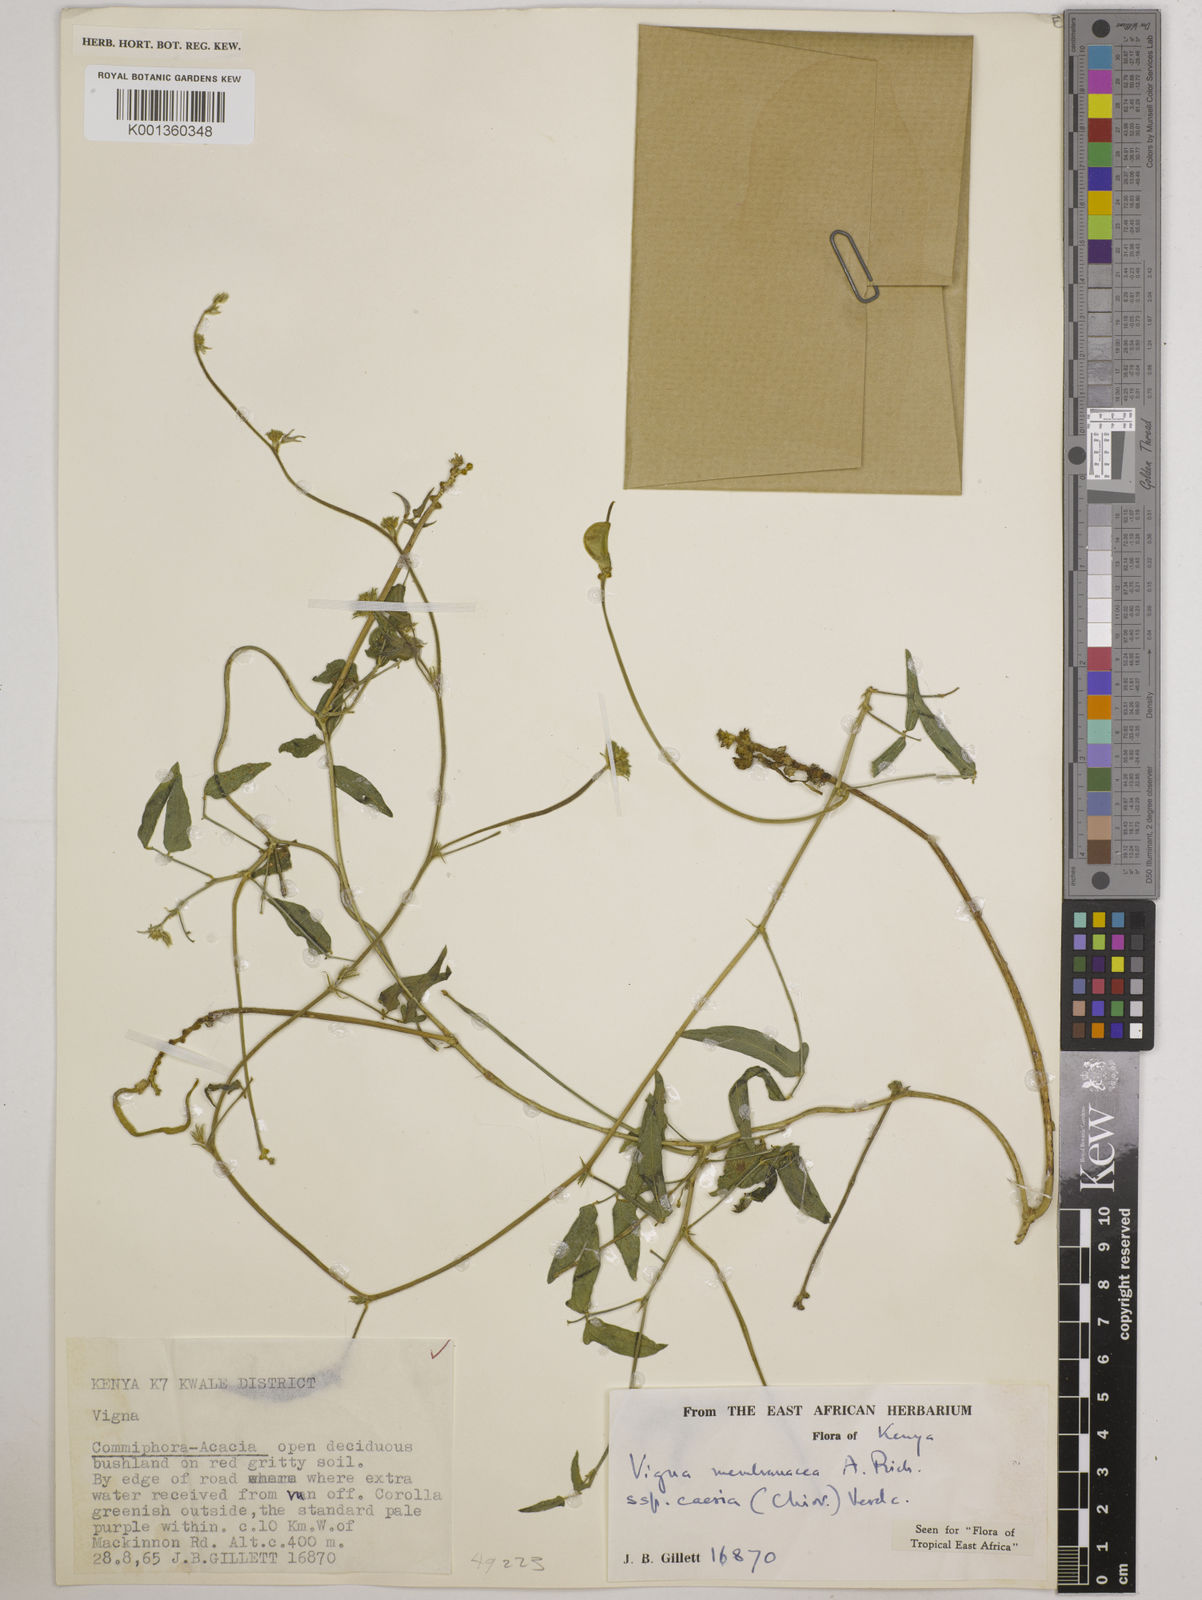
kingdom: Plantae
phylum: Tracheophyta
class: Magnoliopsida
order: Fabales
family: Fabaceae
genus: Vigna
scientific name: Vigna
